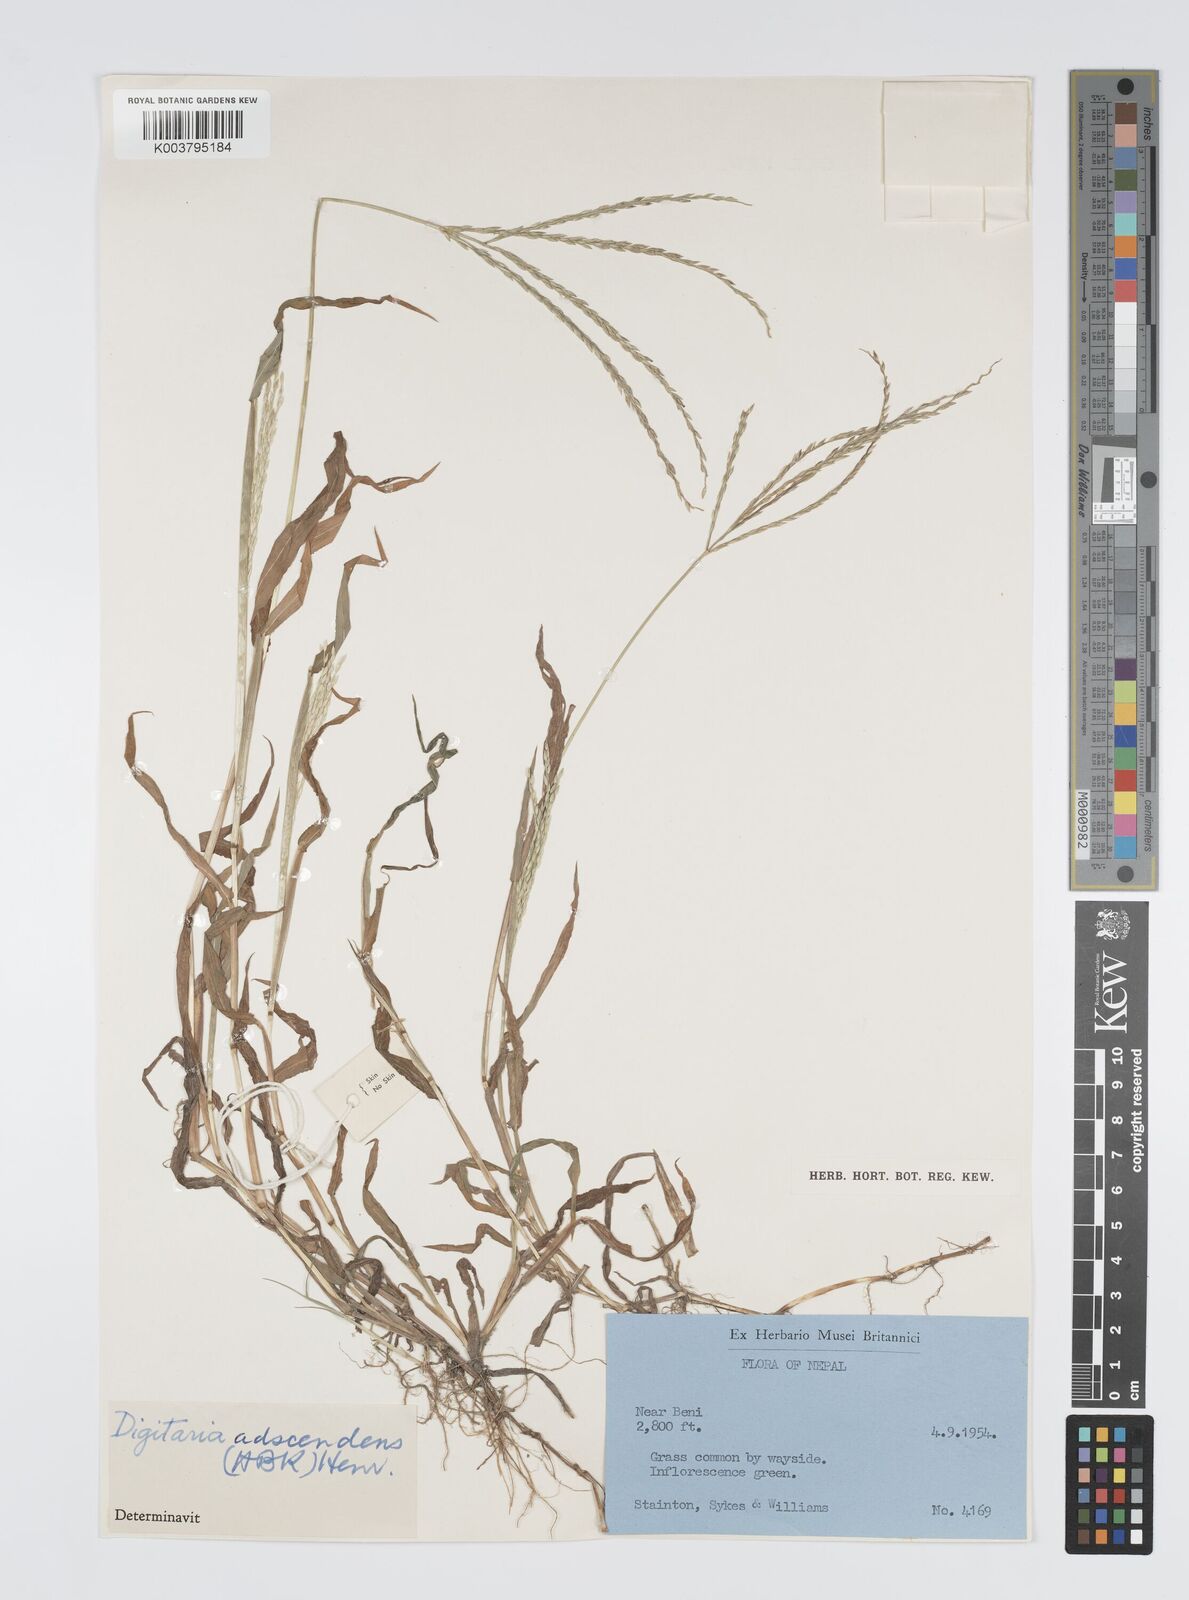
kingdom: Plantae
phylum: Tracheophyta
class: Liliopsida
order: Poales
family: Poaceae
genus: Digitaria
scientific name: Digitaria ciliaris
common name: Tropical finger-grass
